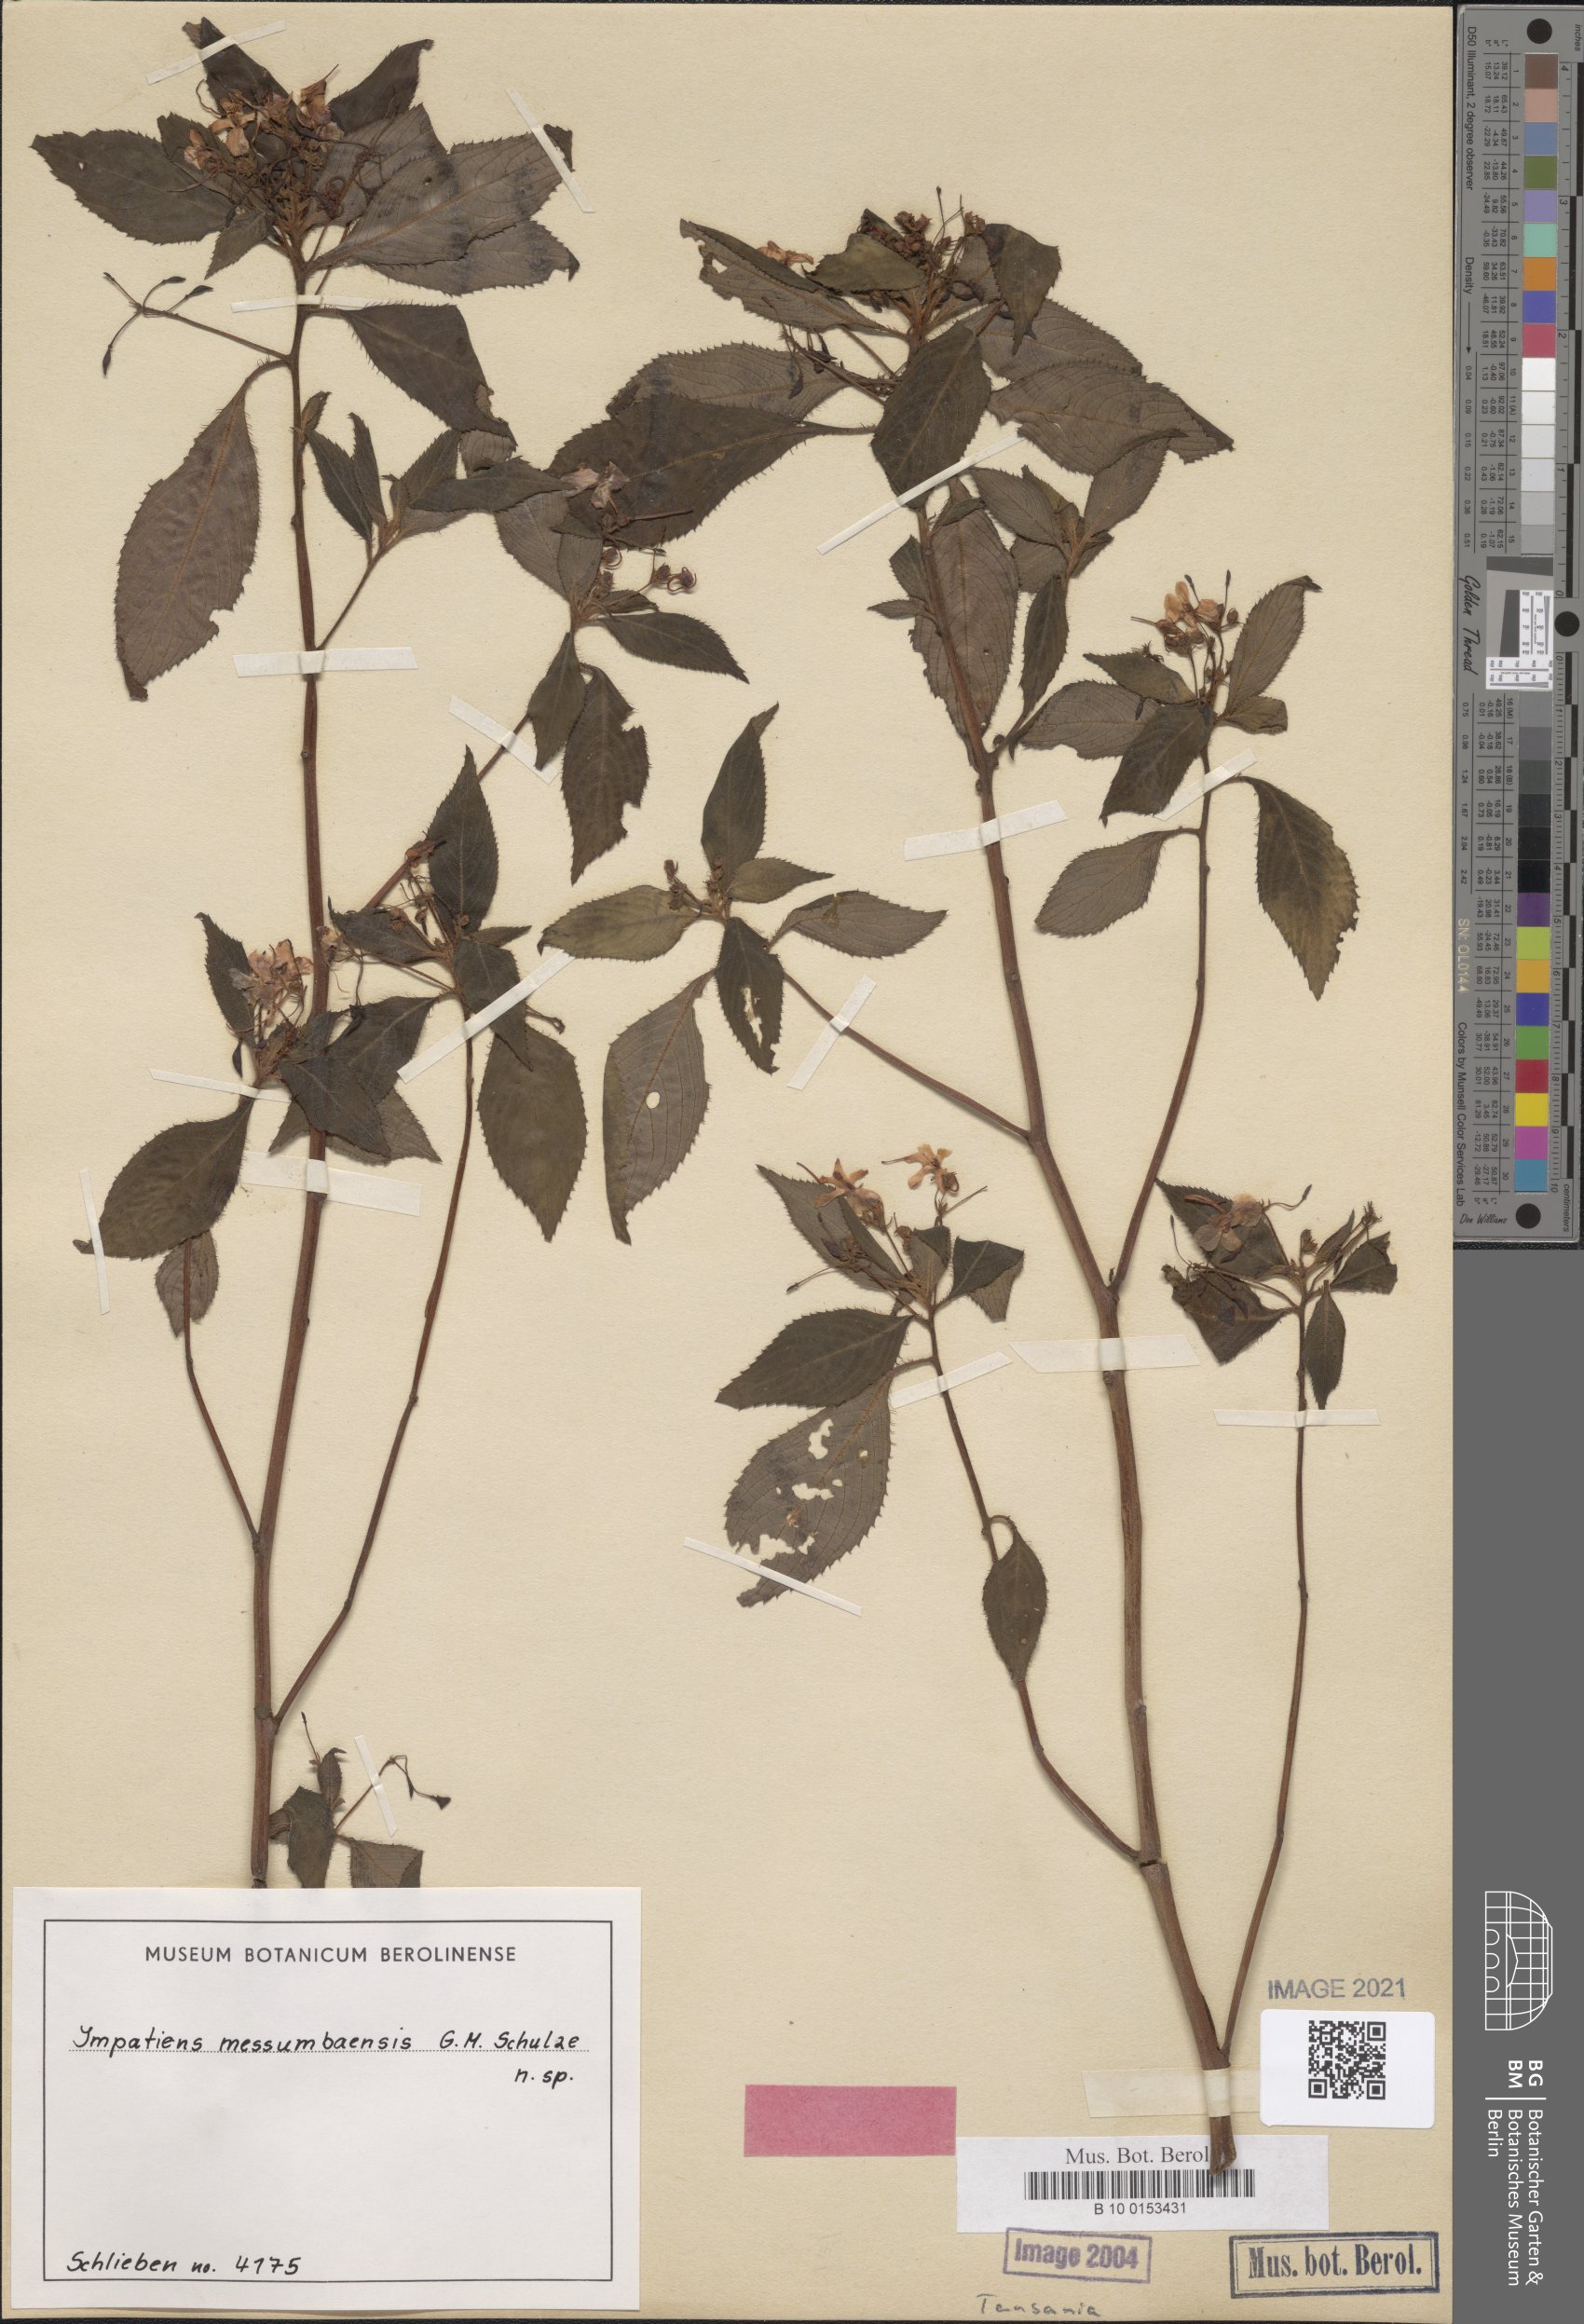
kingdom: Plantae
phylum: Tracheophyta
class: Magnoliopsida
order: Ericales
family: Balsaminaceae
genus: Impatiens
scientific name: Impatiens messumbaensis
